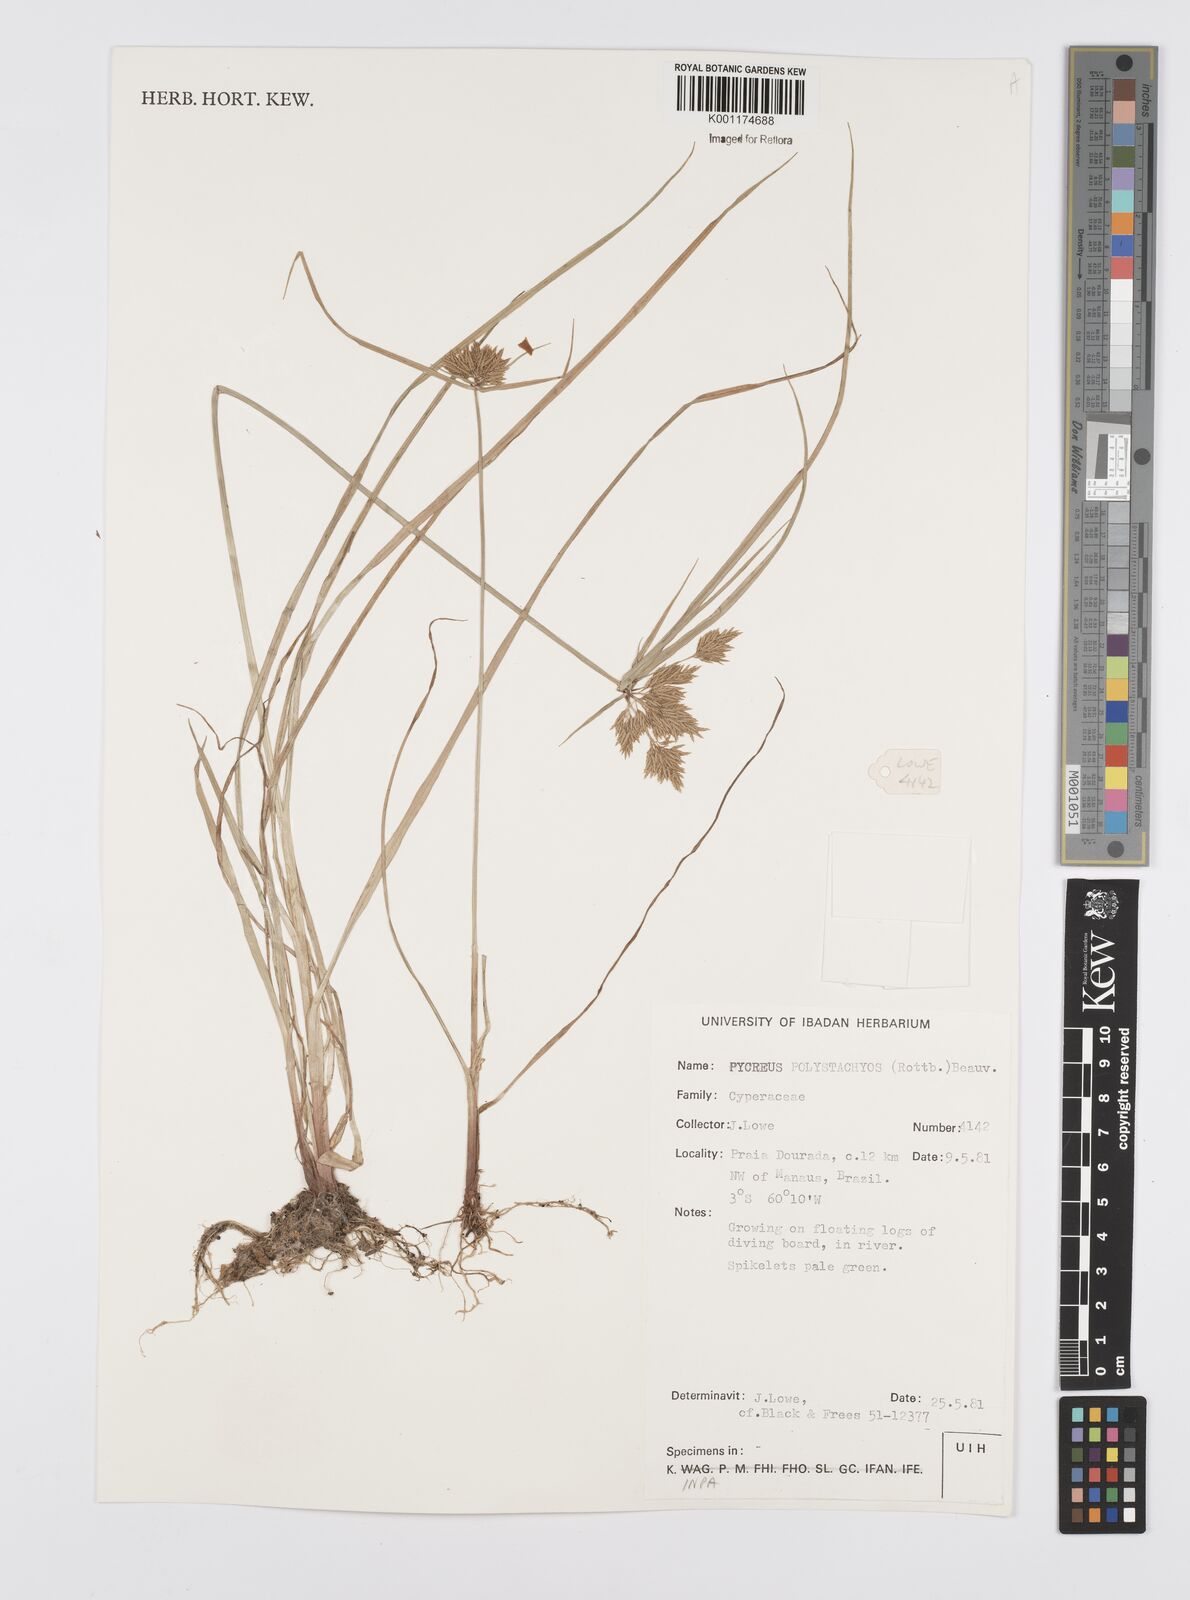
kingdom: Plantae
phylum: Tracheophyta
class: Liliopsida
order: Poales
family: Cyperaceae
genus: Cyperus
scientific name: Cyperus polystachyos
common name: Bunchy flat sedge
